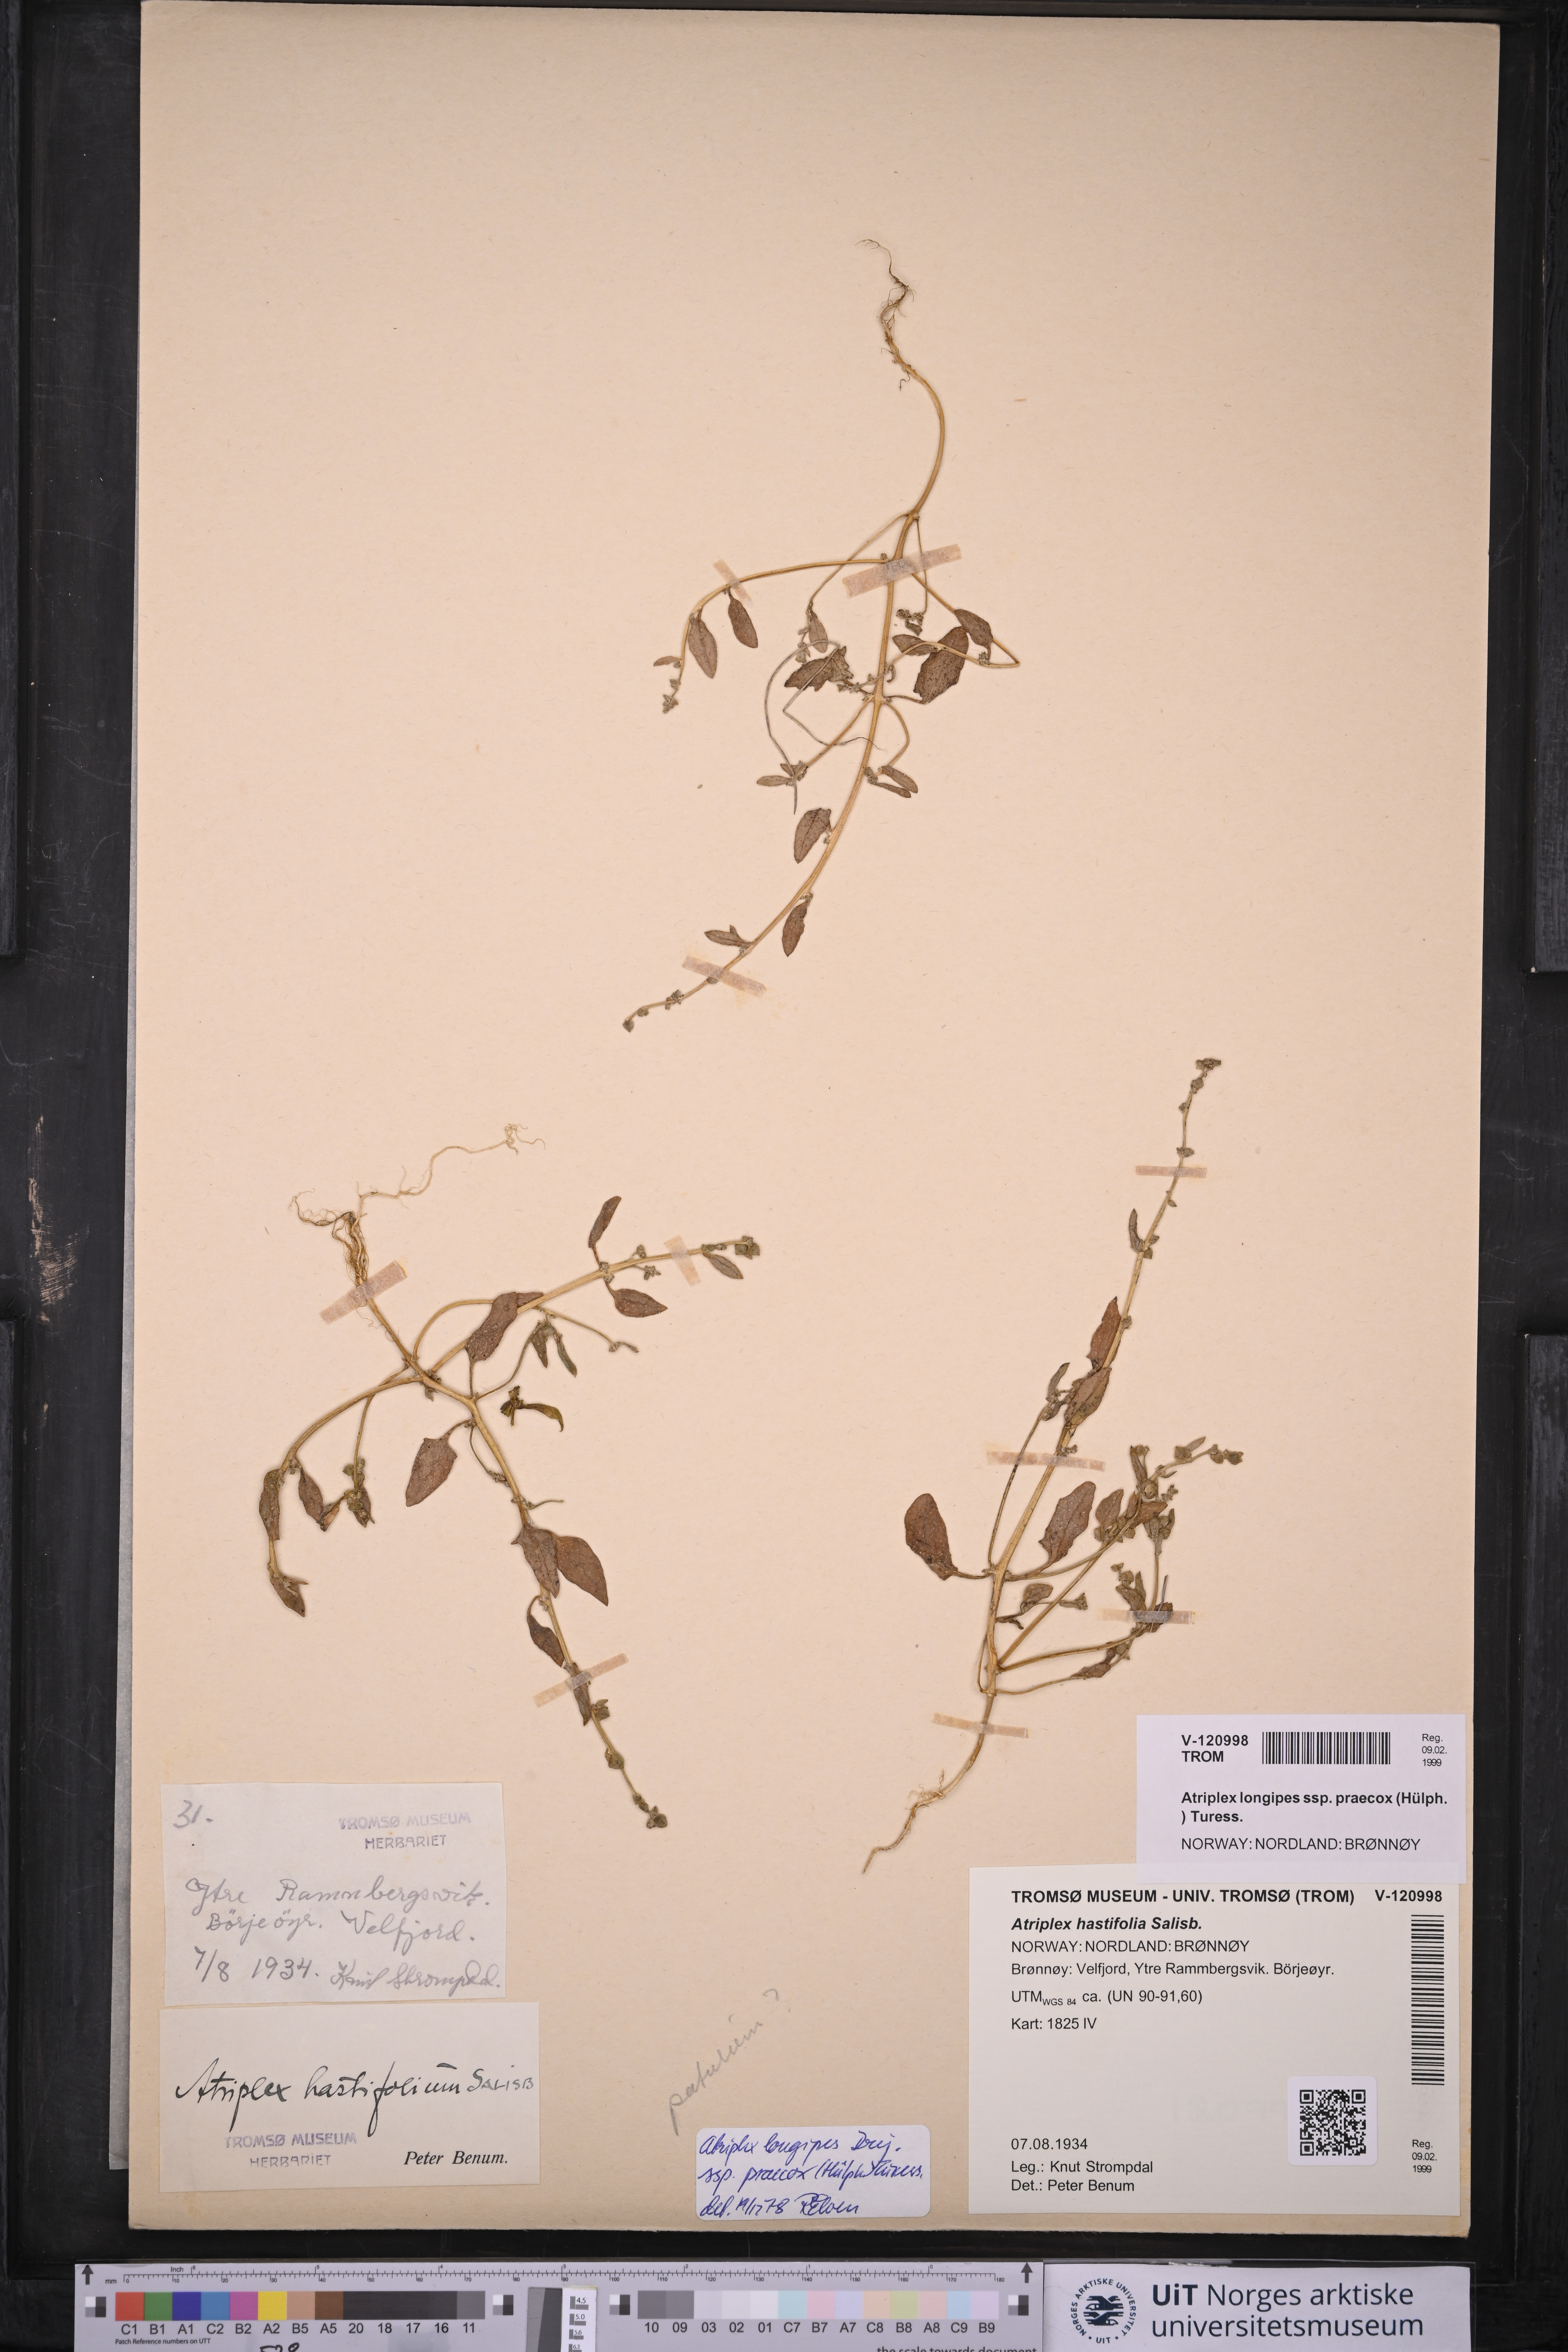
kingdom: Plantae
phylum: Tracheophyta
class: Magnoliopsida
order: Caryophyllales
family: Amaranthaceae
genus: Atriplex
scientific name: Atriplex praecox
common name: Early orache
